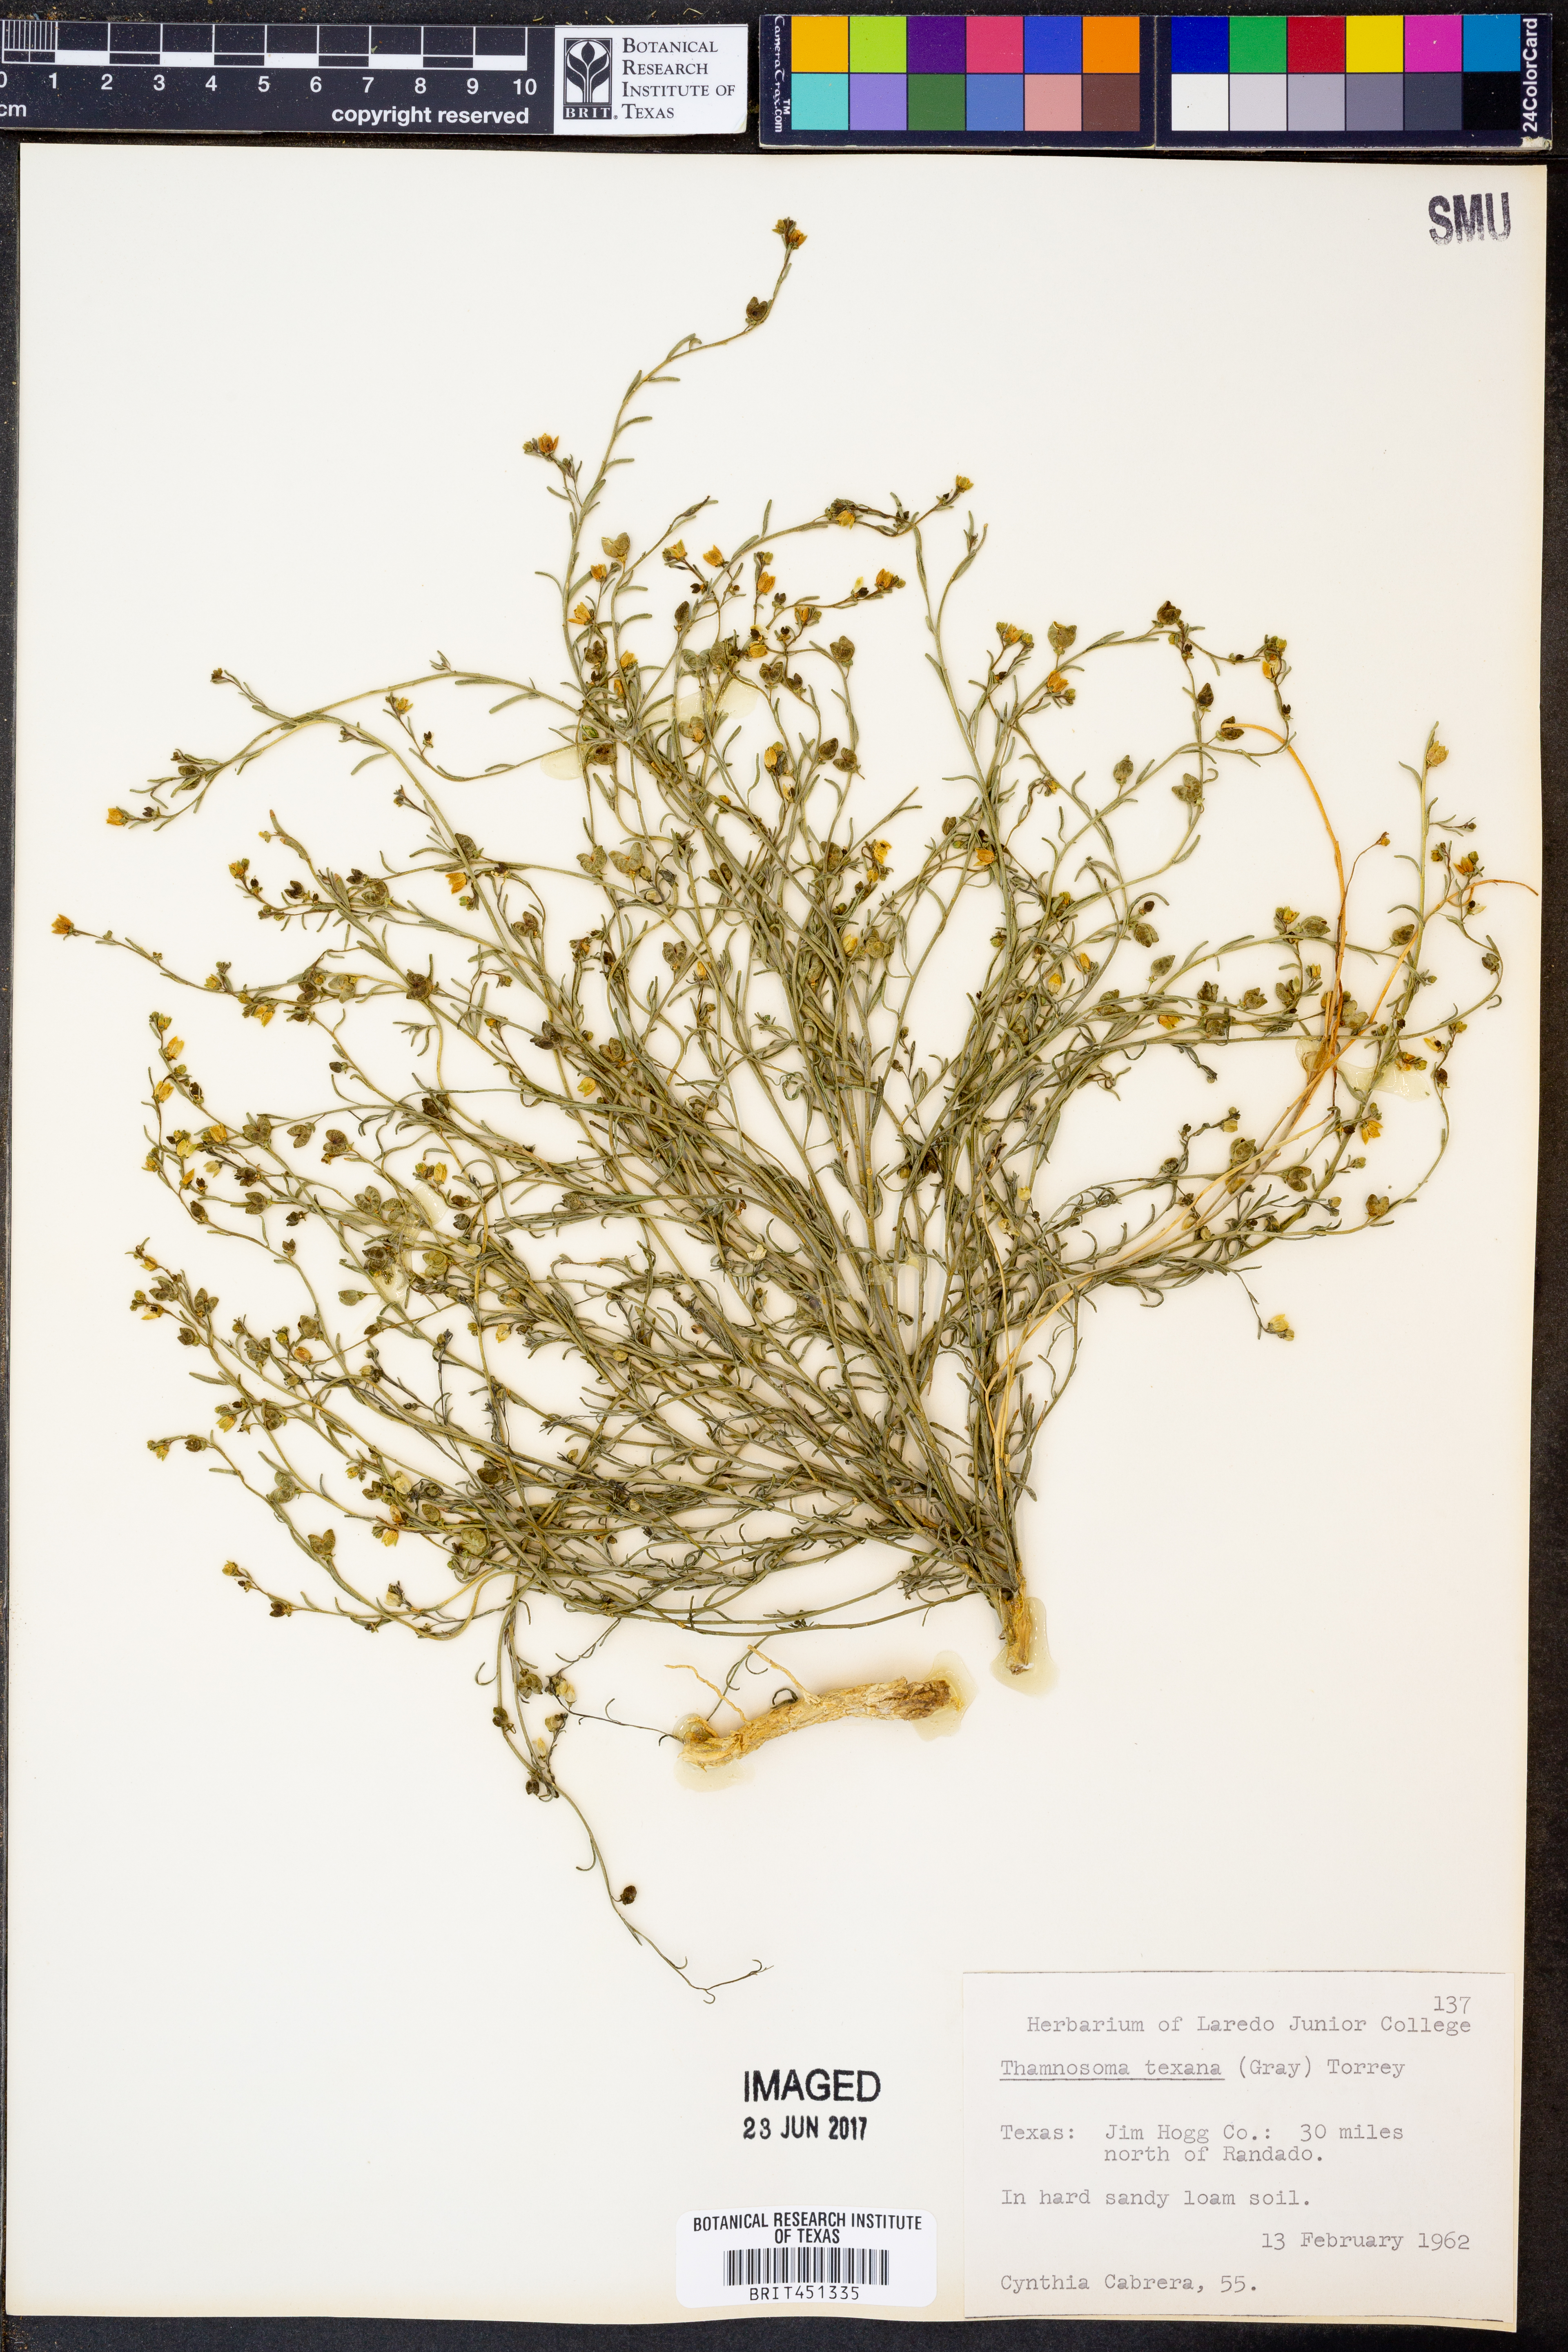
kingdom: Plantae
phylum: Tracheophyta
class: Magnoliopsida
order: Sapindales
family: Rutaceae
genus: Thamnosma
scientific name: Thamnosma texana
